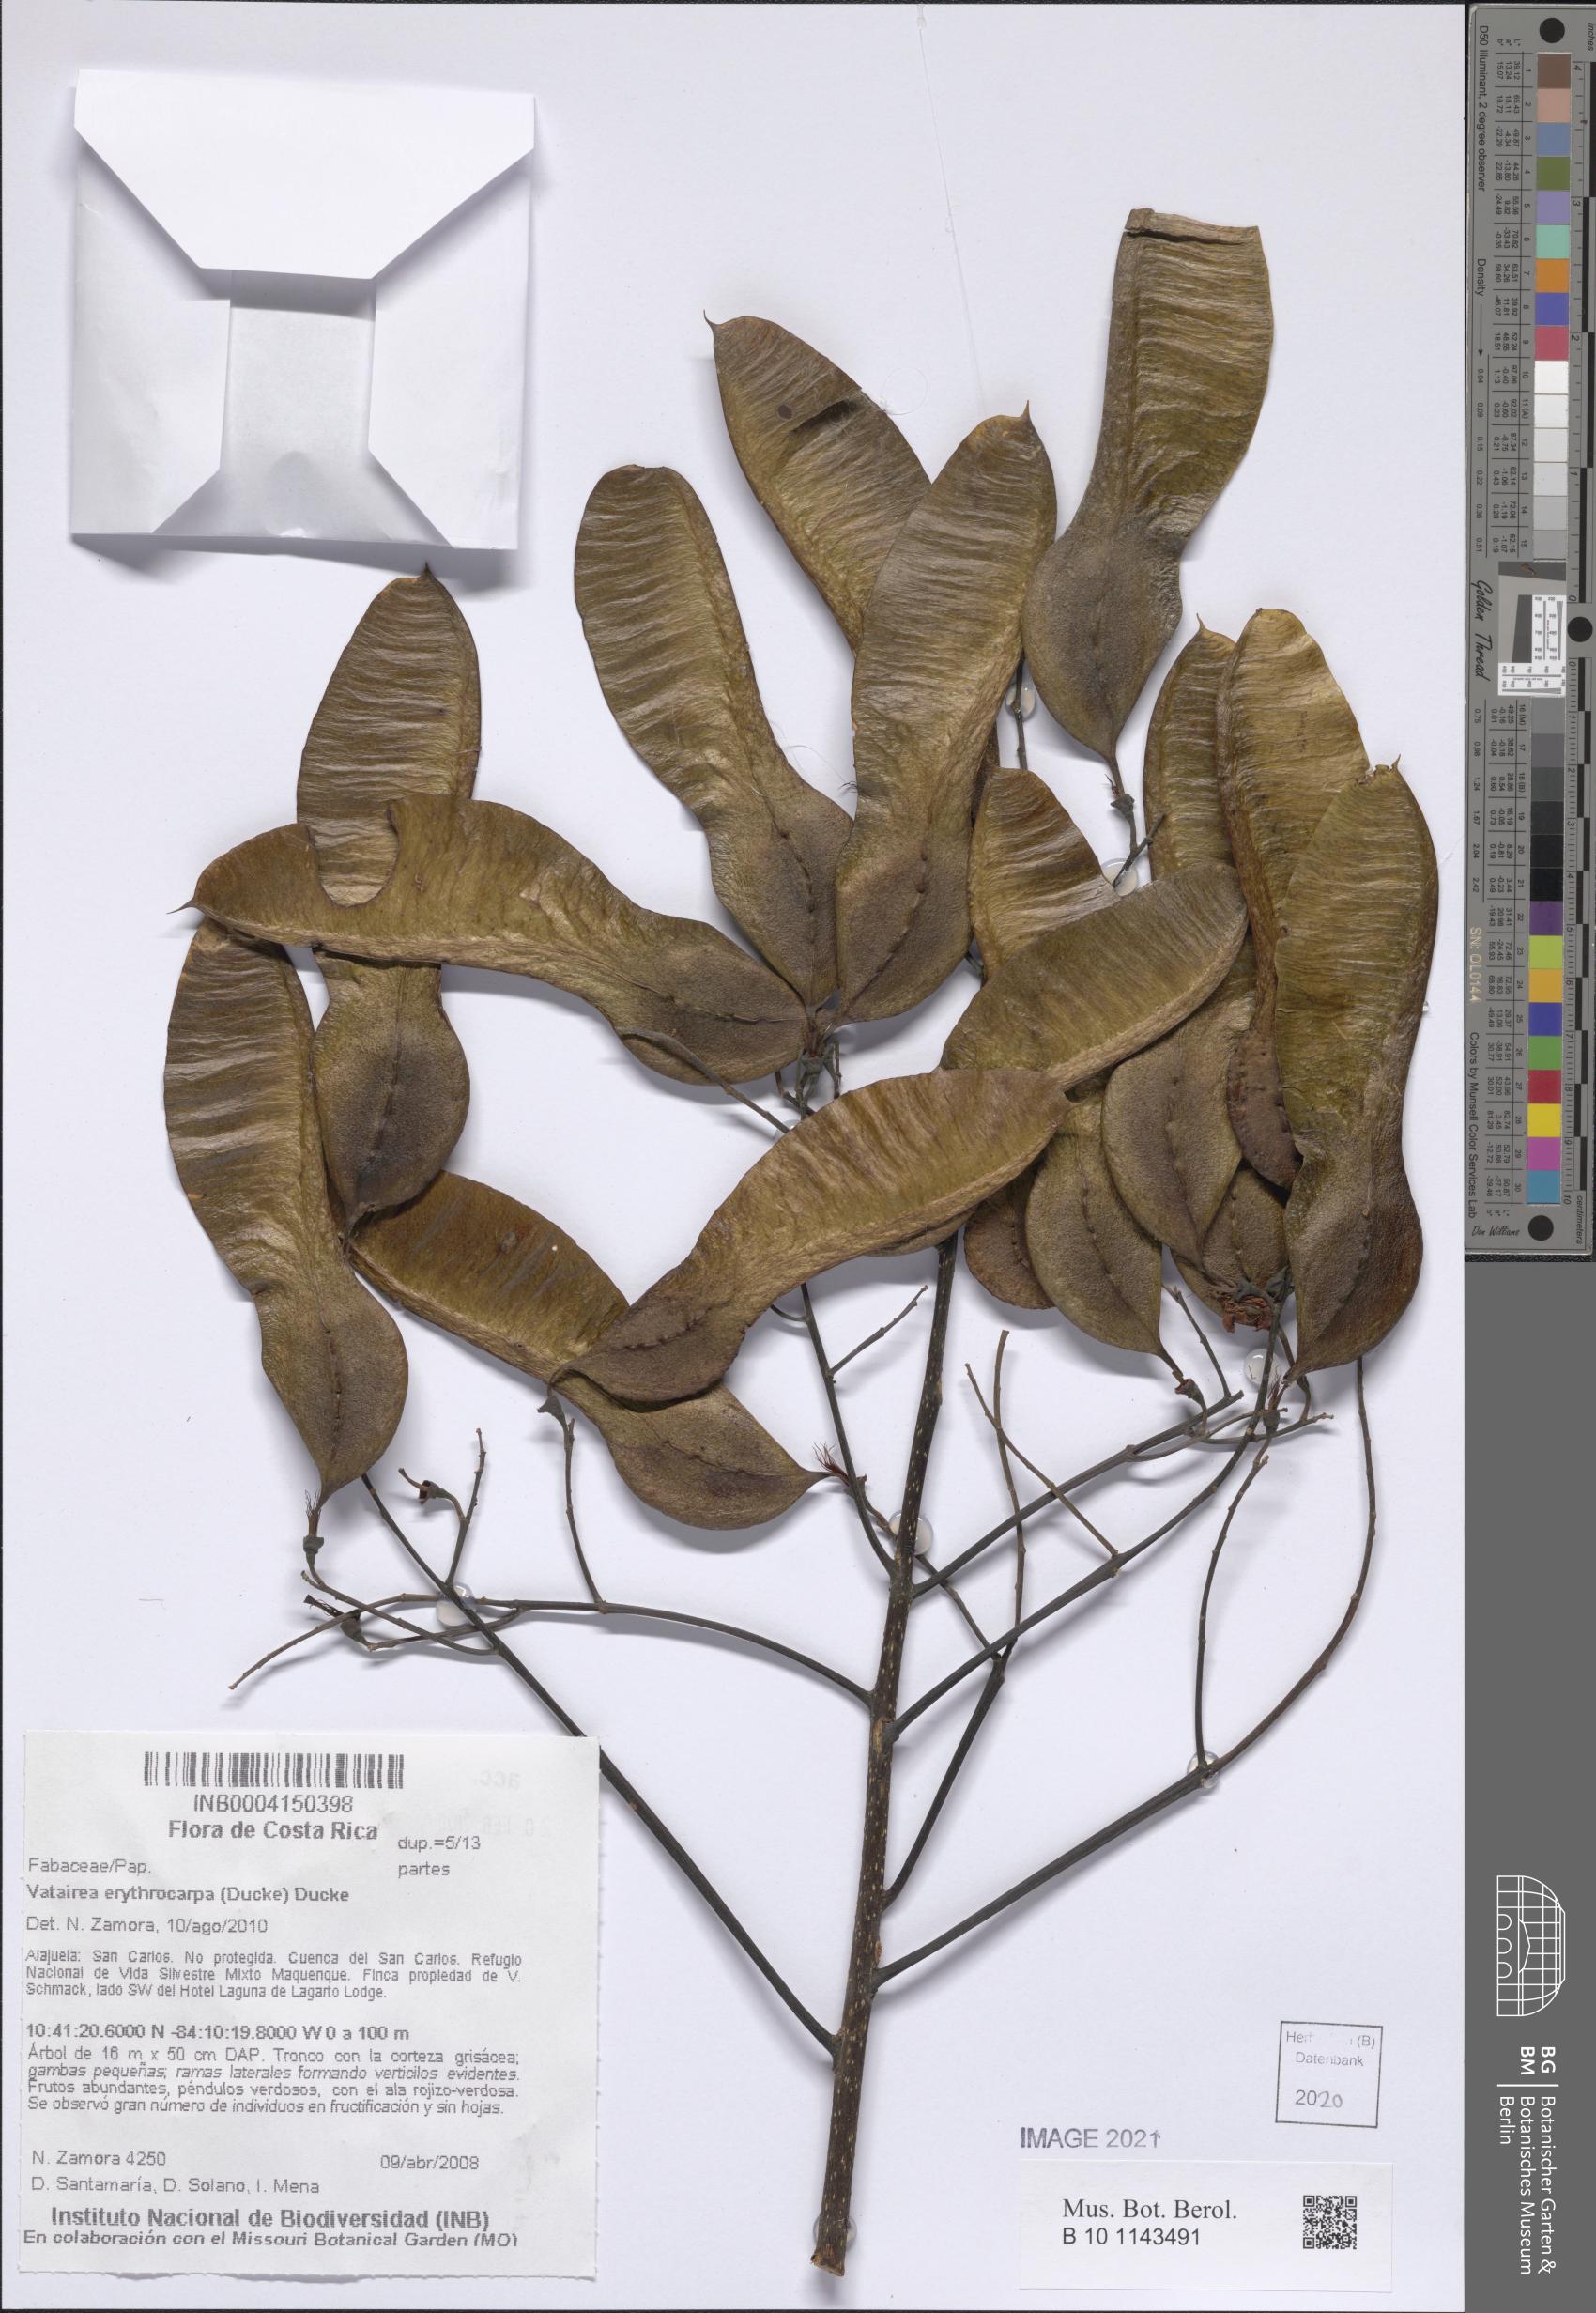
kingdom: Plantae
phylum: Tracheophyta
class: Magnoliopsida
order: Fabales
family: Fabaceae
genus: Vatairea
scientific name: Vatairea erythrocarpa
